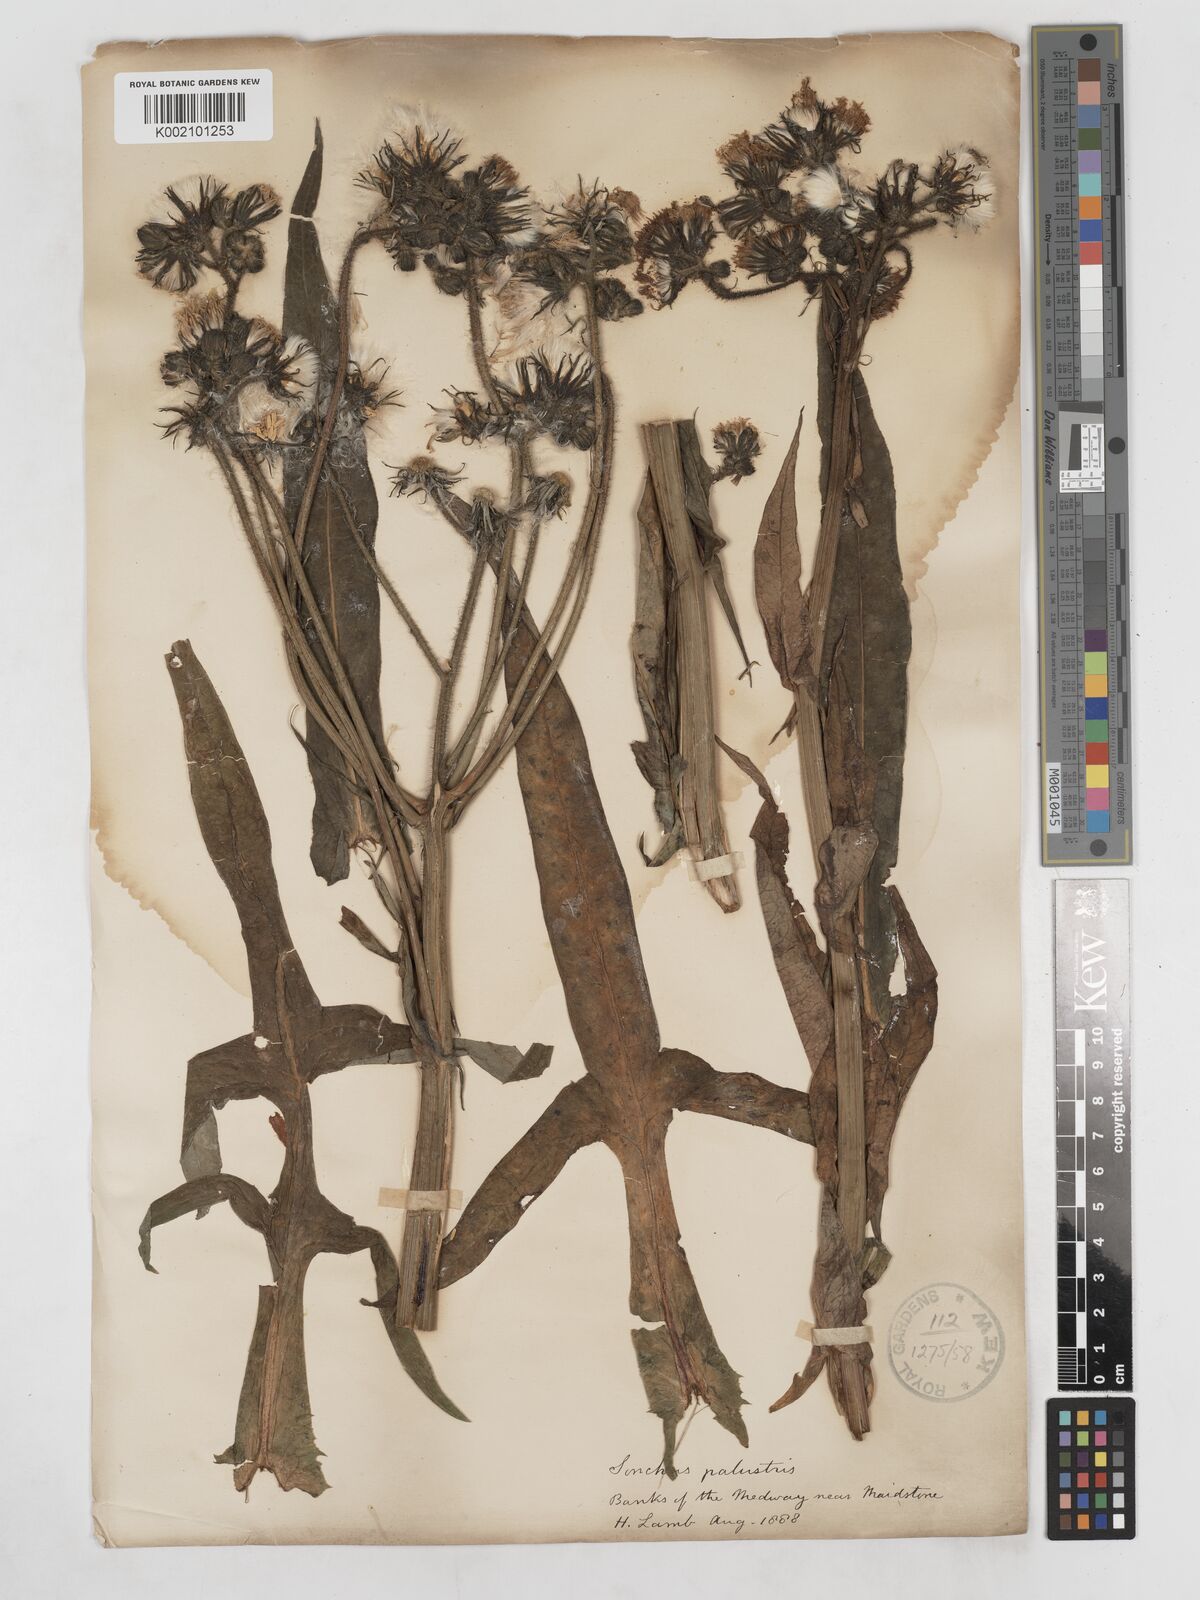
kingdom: Plantae
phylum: Tracheophyta
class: Magnoliopsida
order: Asterales
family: Asteraceae
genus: Sonchus
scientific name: Sonchus palustris
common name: Marsh sow-thistle
